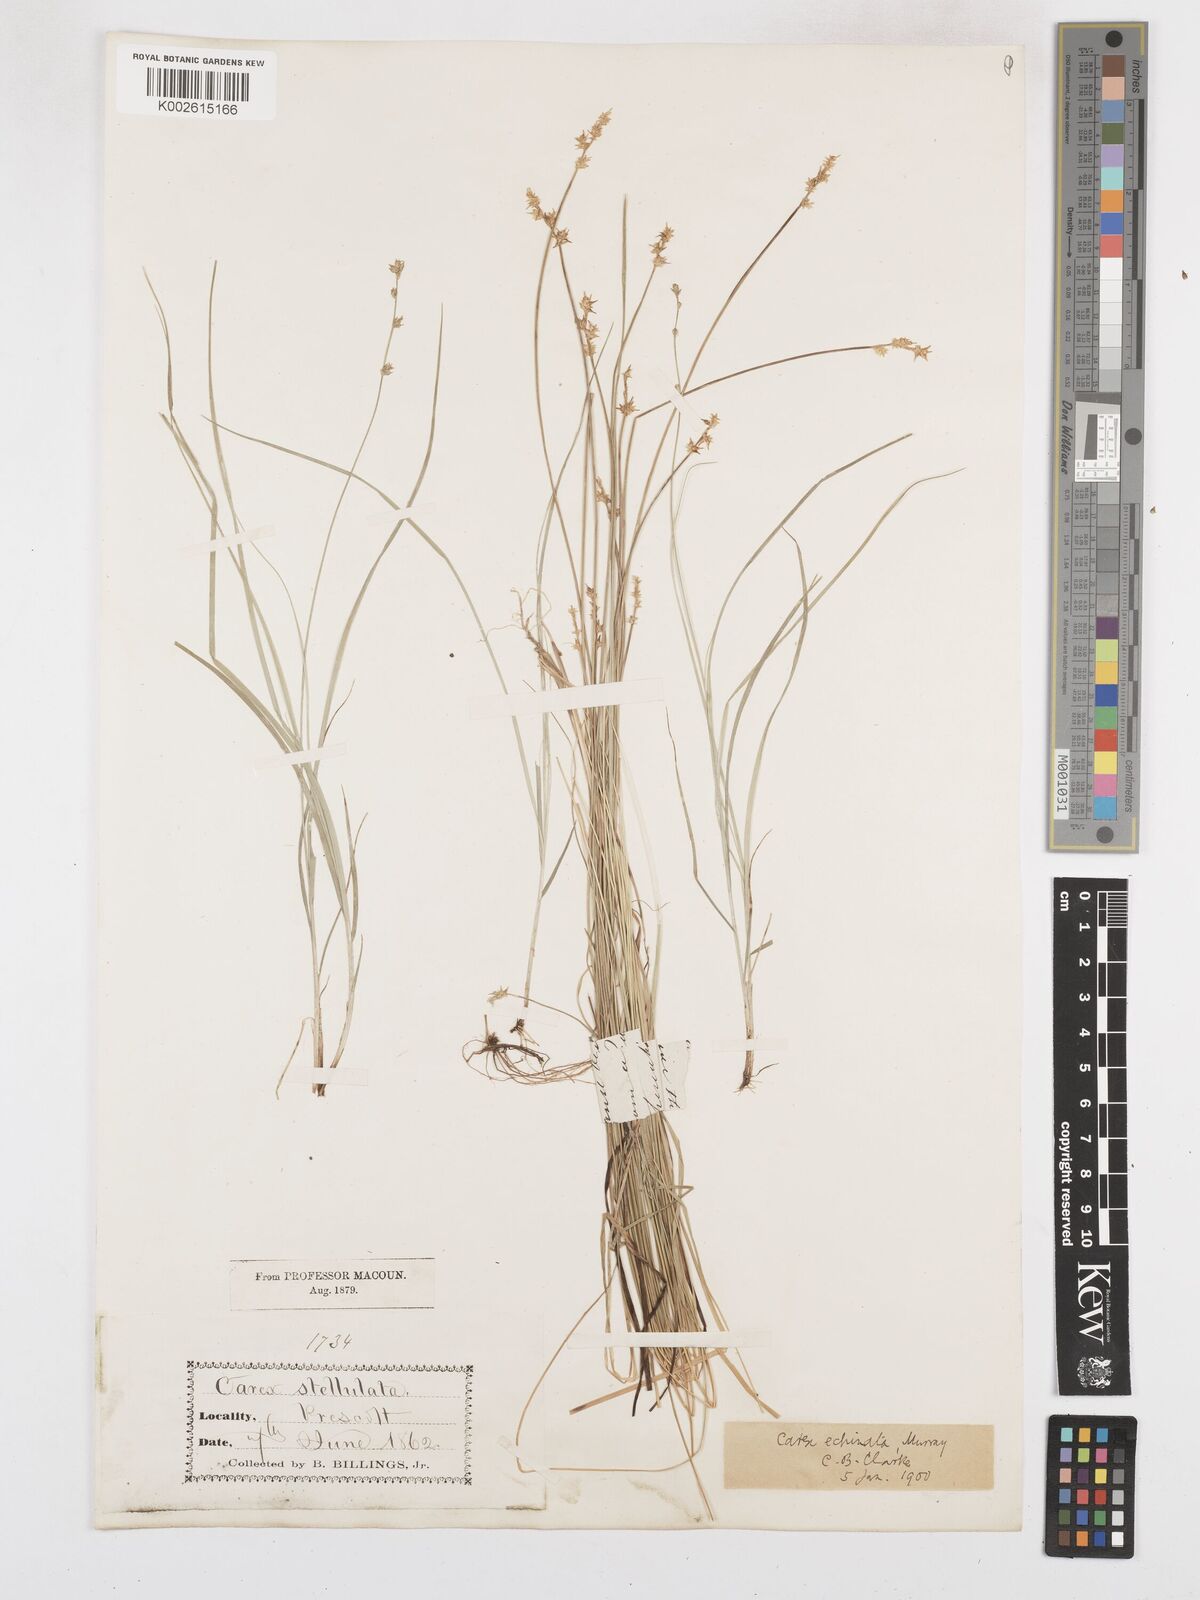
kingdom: Plantae
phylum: Tracheophyta
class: Liliopsida
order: Poales
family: Cyperaceae
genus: Carex
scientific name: Carex echinata
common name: Star sedge
